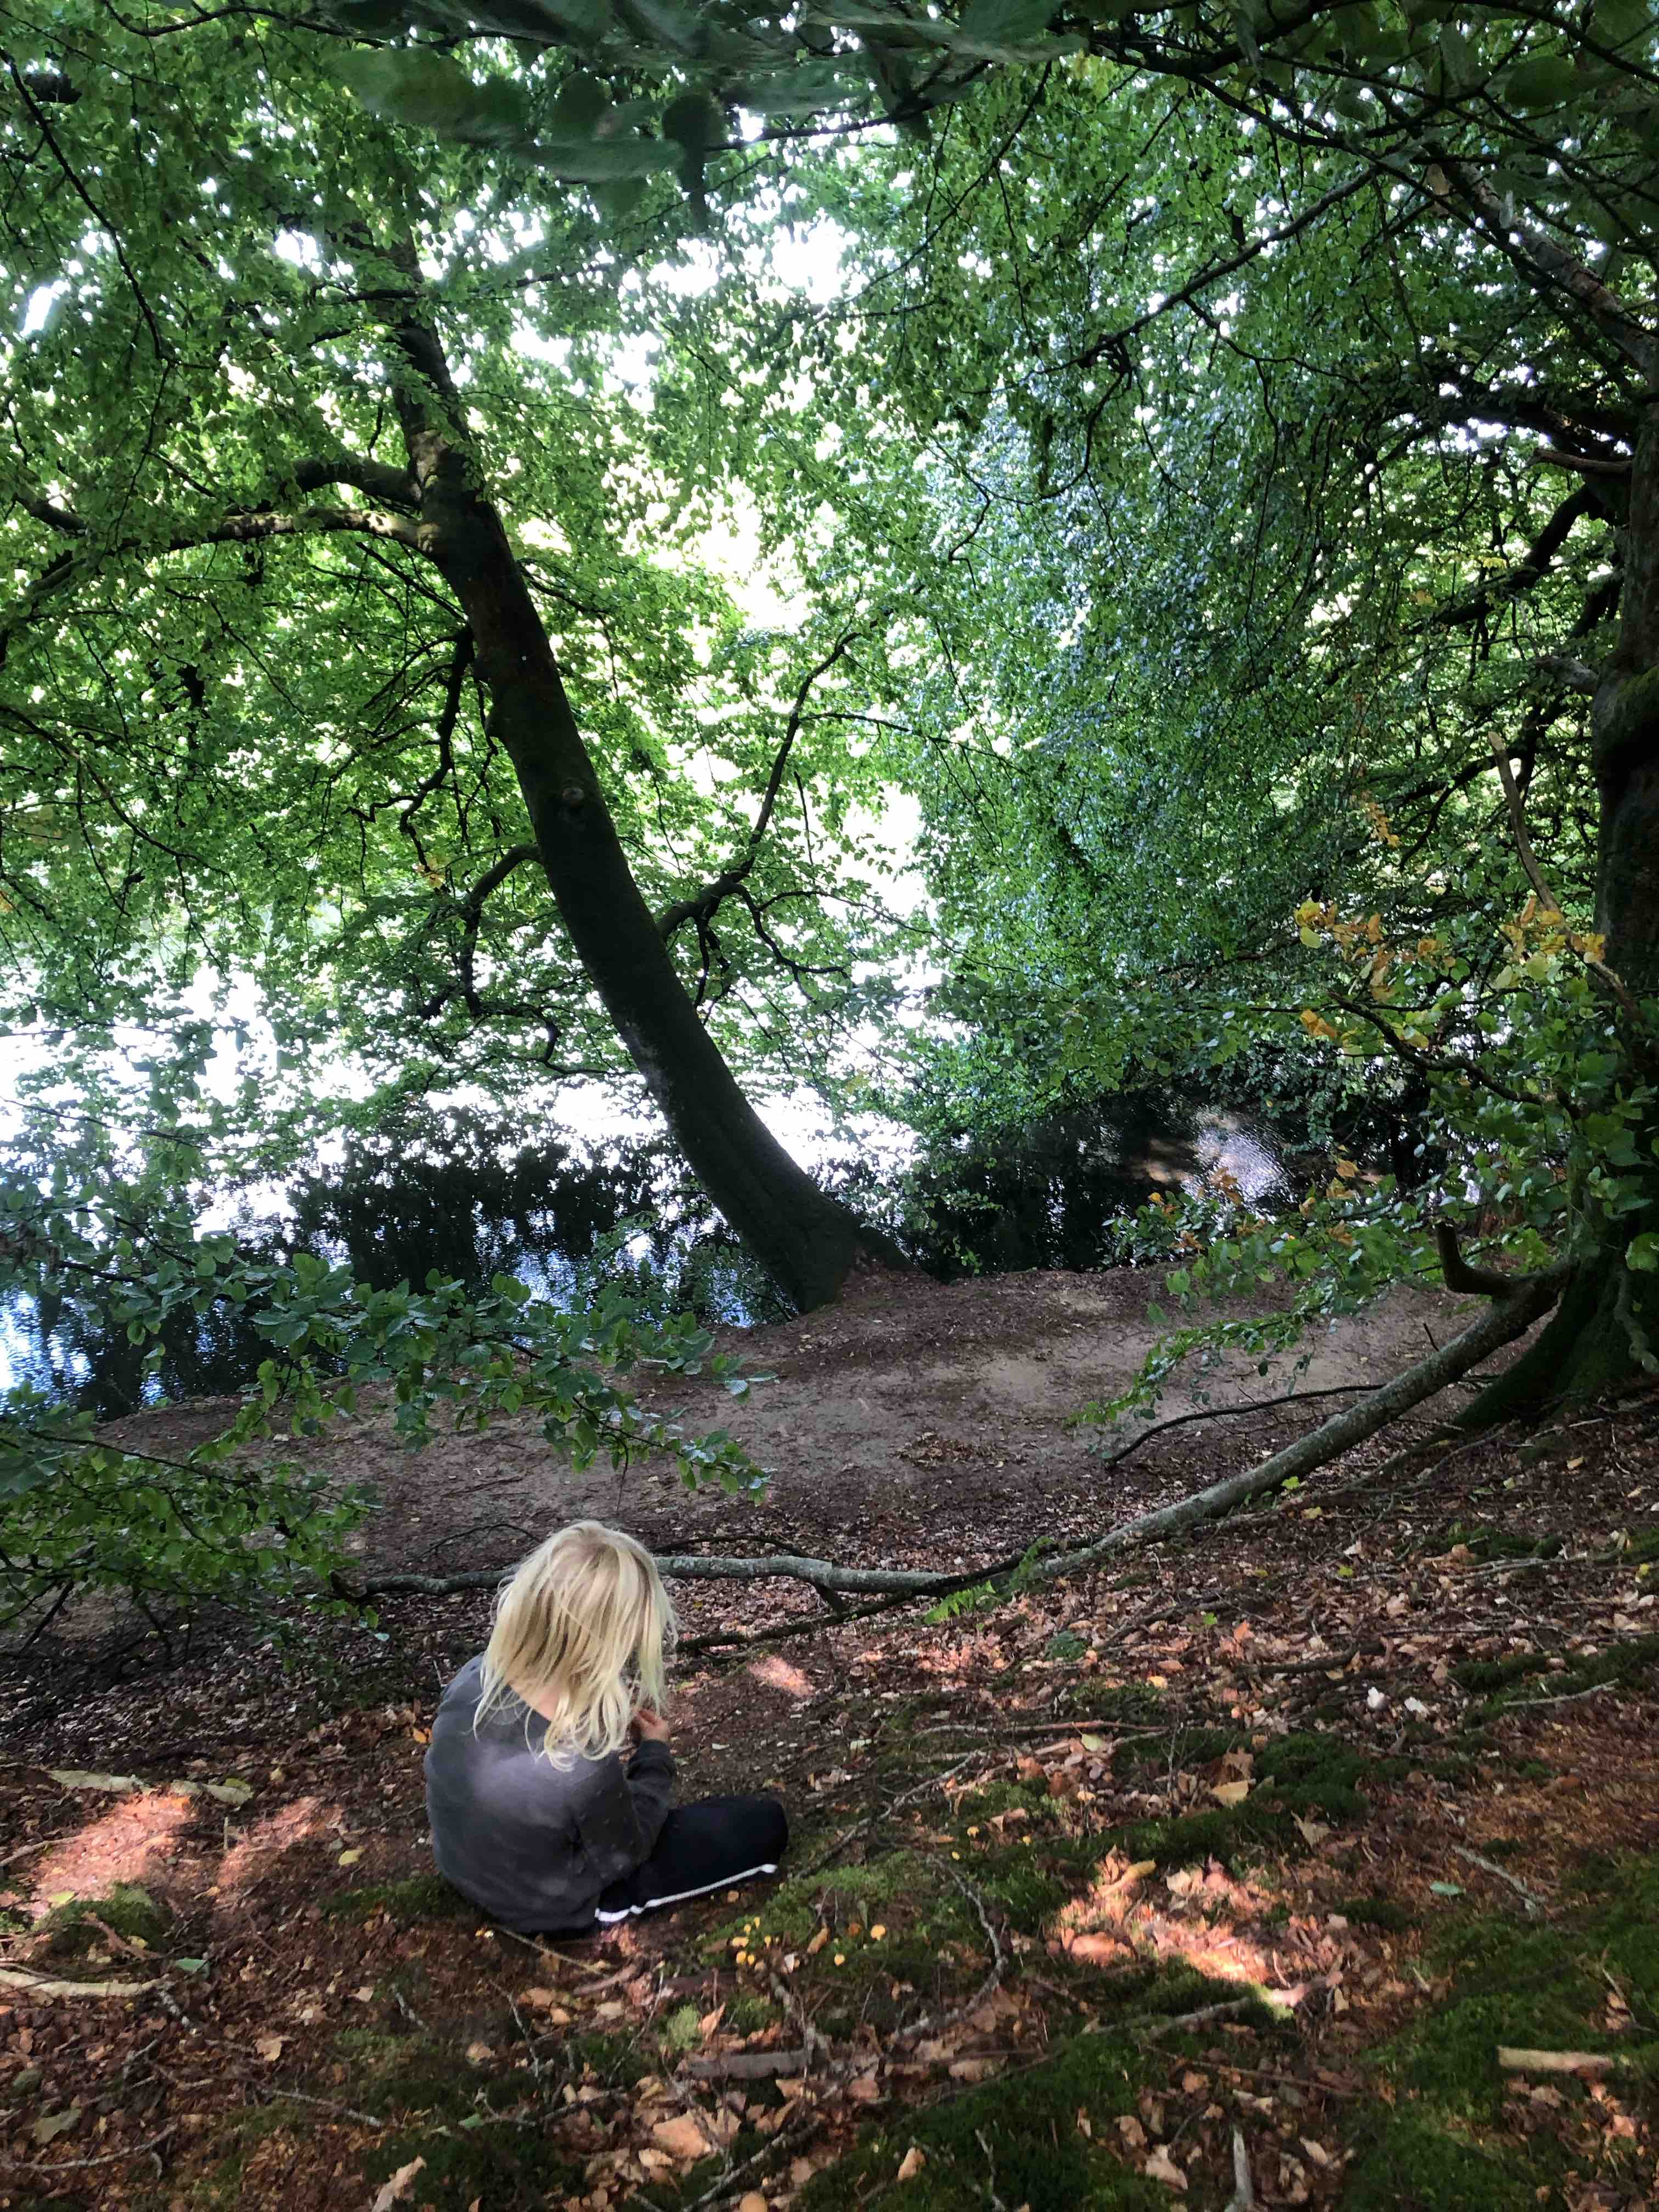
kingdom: Fungi
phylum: Basidiomycota
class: Agaricomycetes
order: Cantharellales
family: Hydnaceae
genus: Cantharellus
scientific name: Cantharellus cibarius
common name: almindelig kantarel
